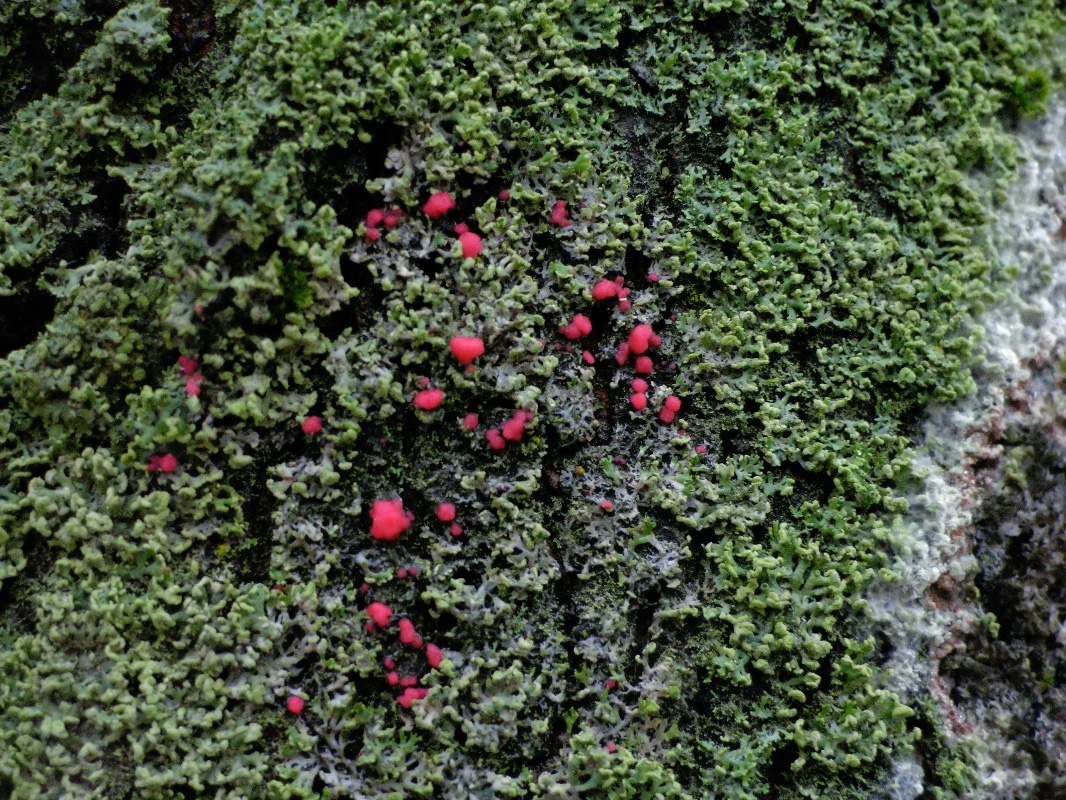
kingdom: Fungi
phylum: Ascomycota
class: Sordariomycetes
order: Hypocreales
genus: Illosporiopsis
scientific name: Illosporiopsis christiansenii
